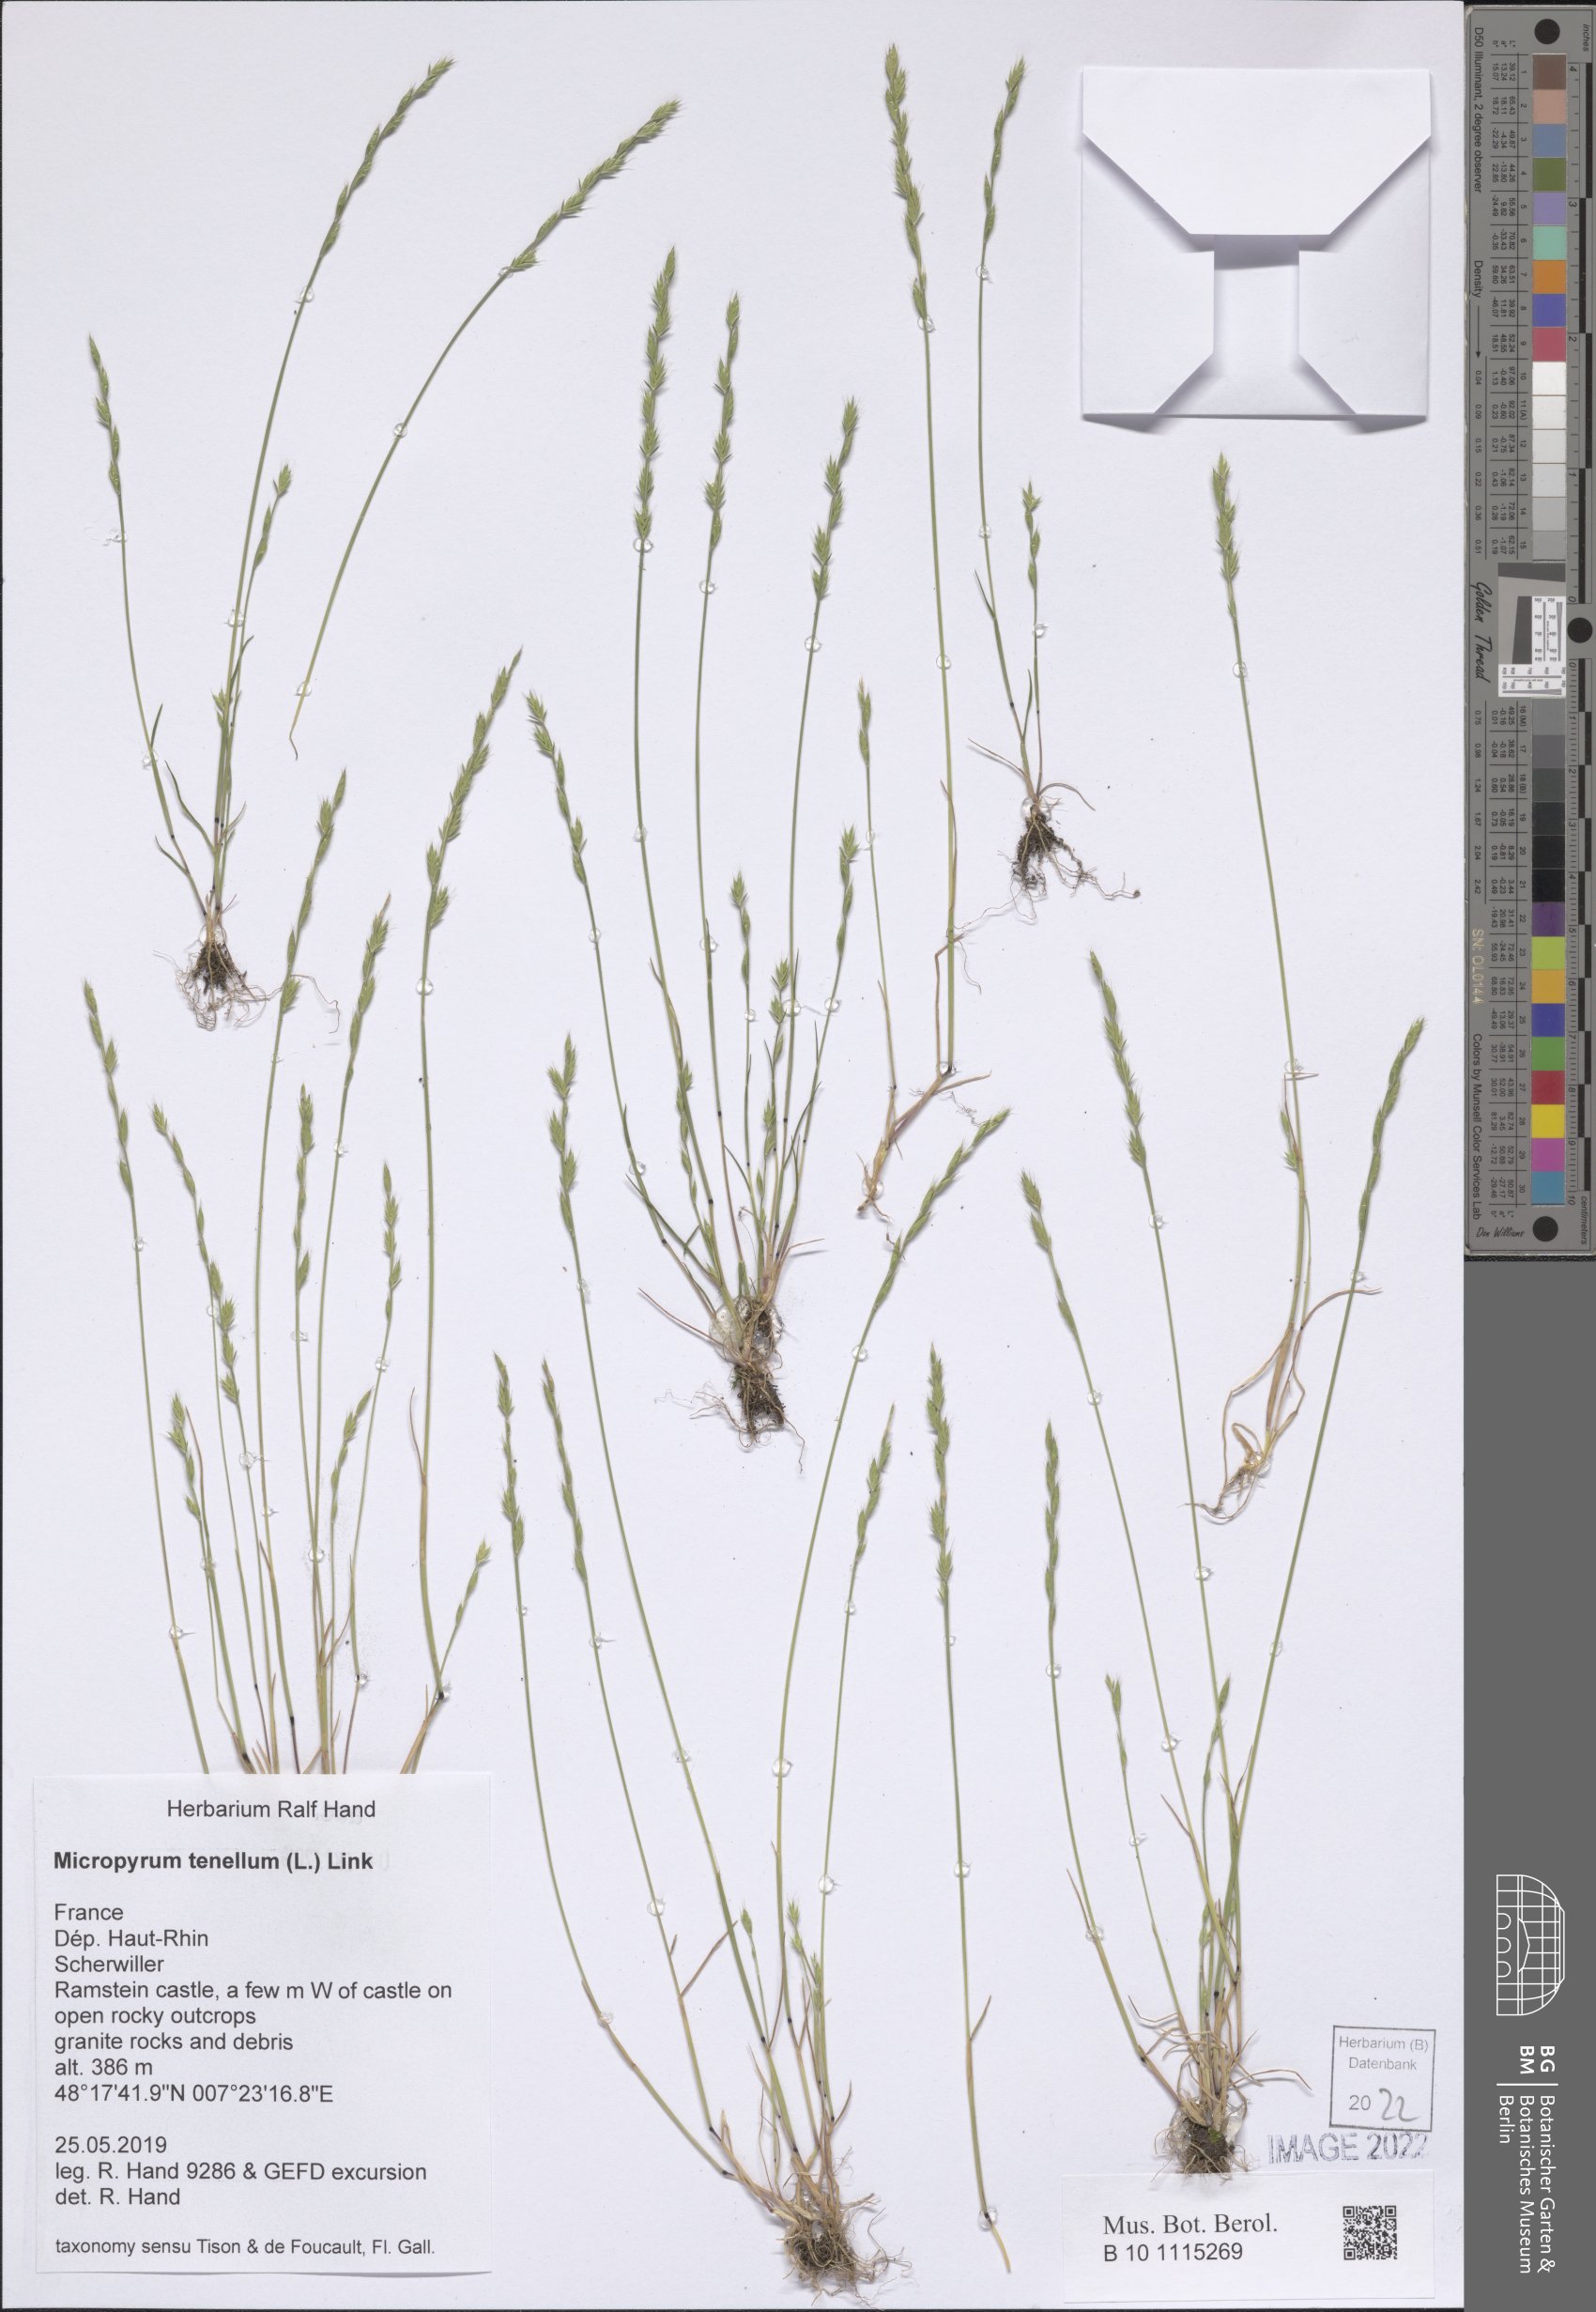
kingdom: Plantae
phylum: Tracheophyta
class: Liliopsida
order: Poales
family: Poaceae
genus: Festuca
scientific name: Festuca lachenalii
